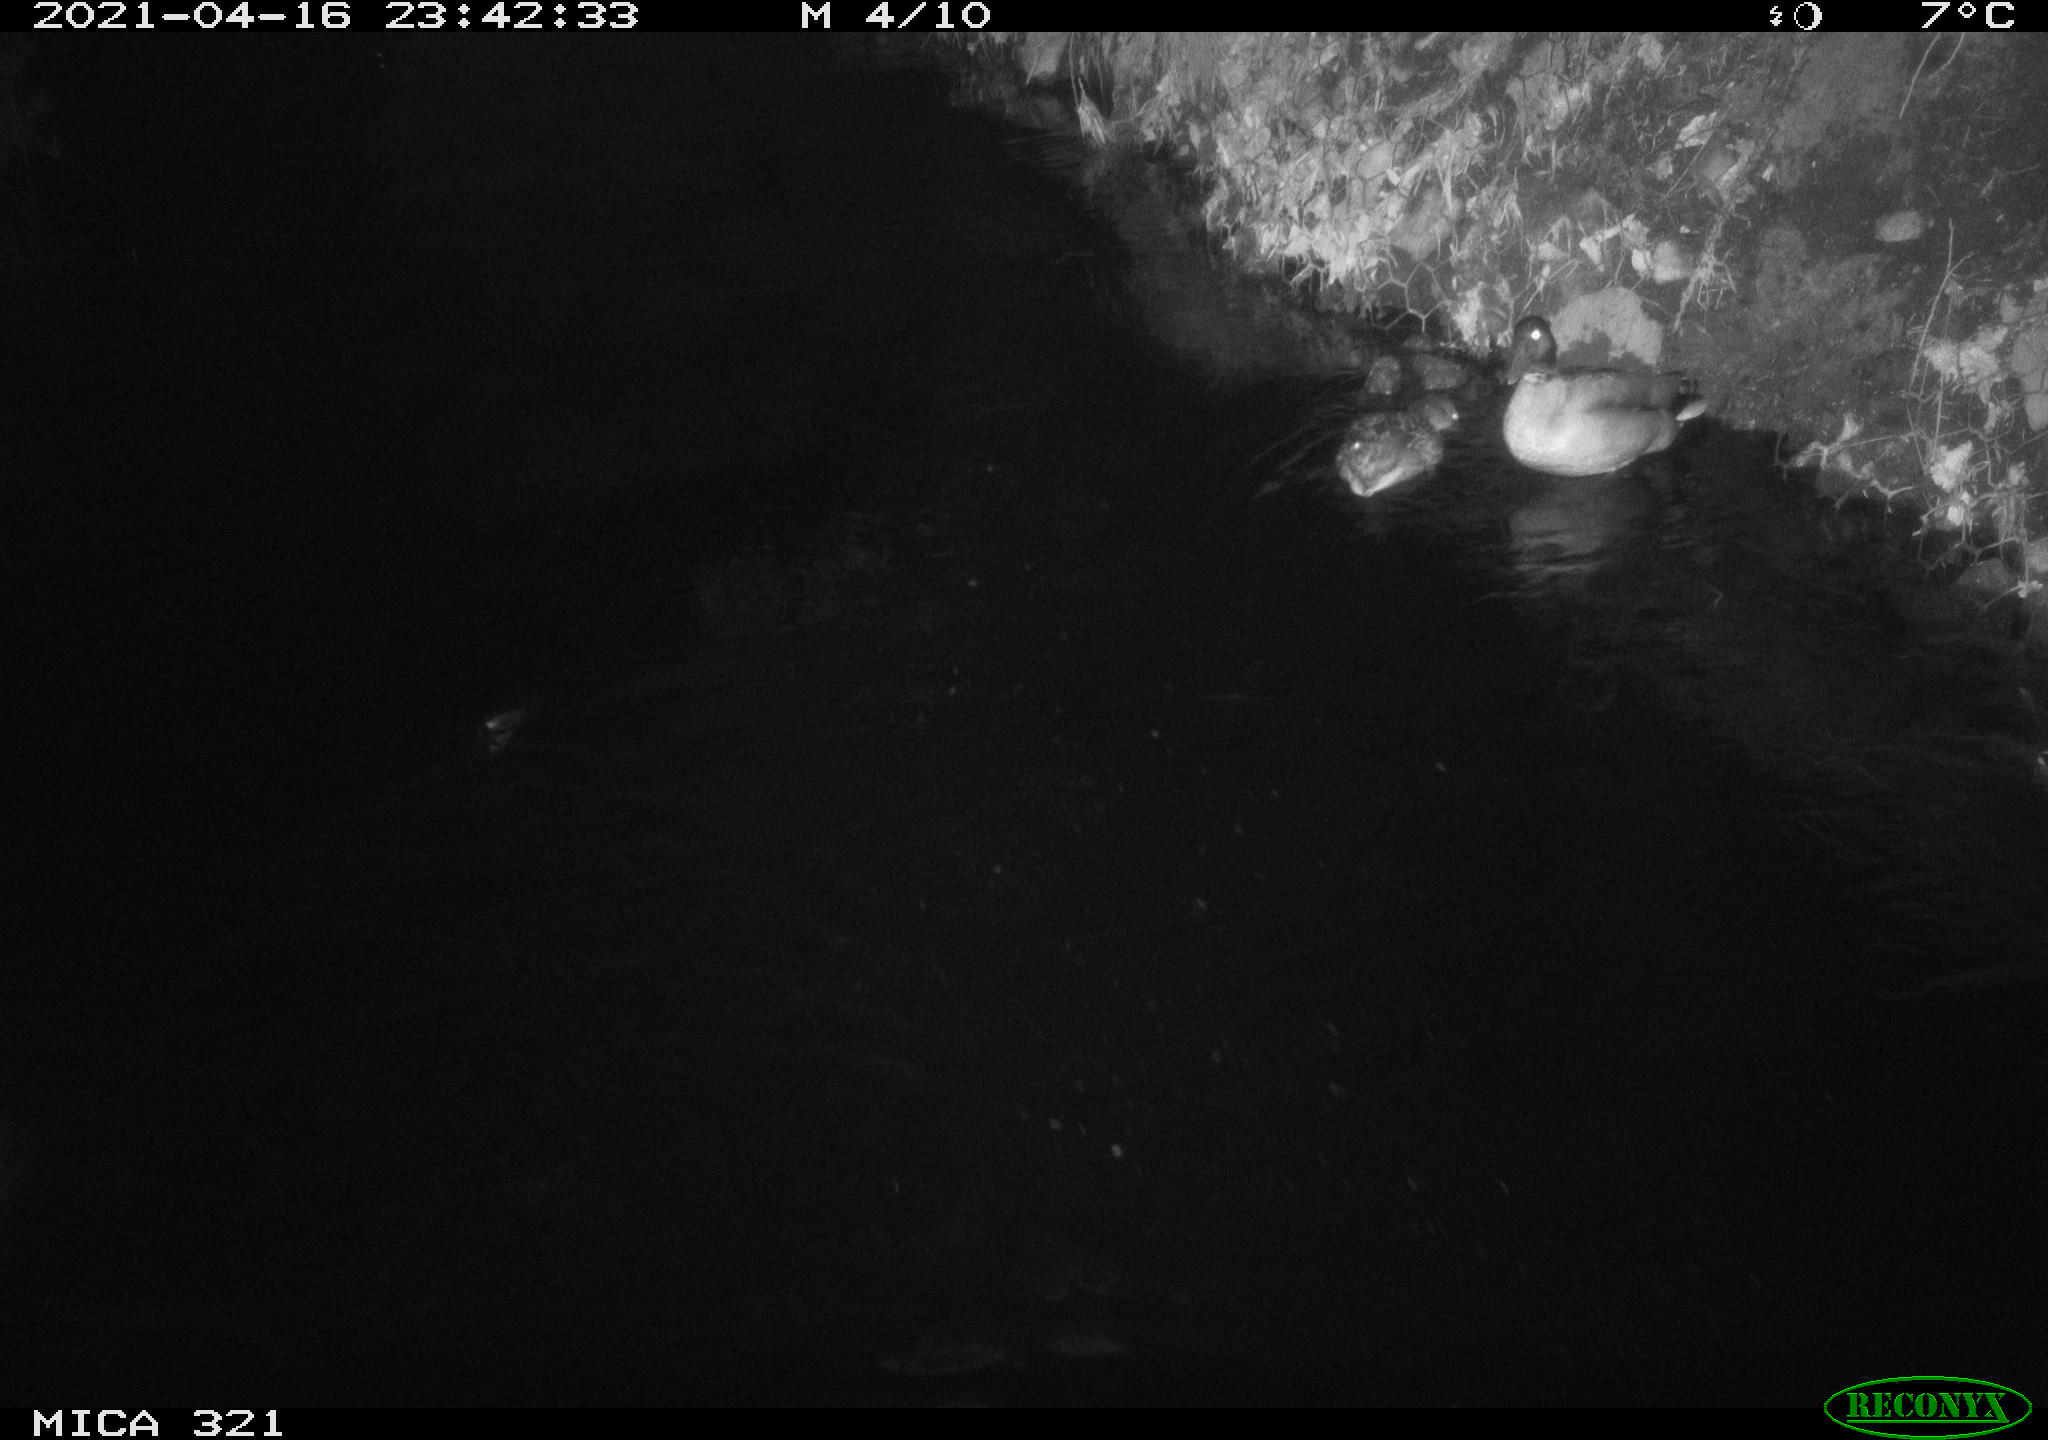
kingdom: Animalia
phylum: Chordata
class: Aves
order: Gruiformes
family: Rallidae
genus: Gallinula
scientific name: Gallinula chloropus
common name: Common moorhen
